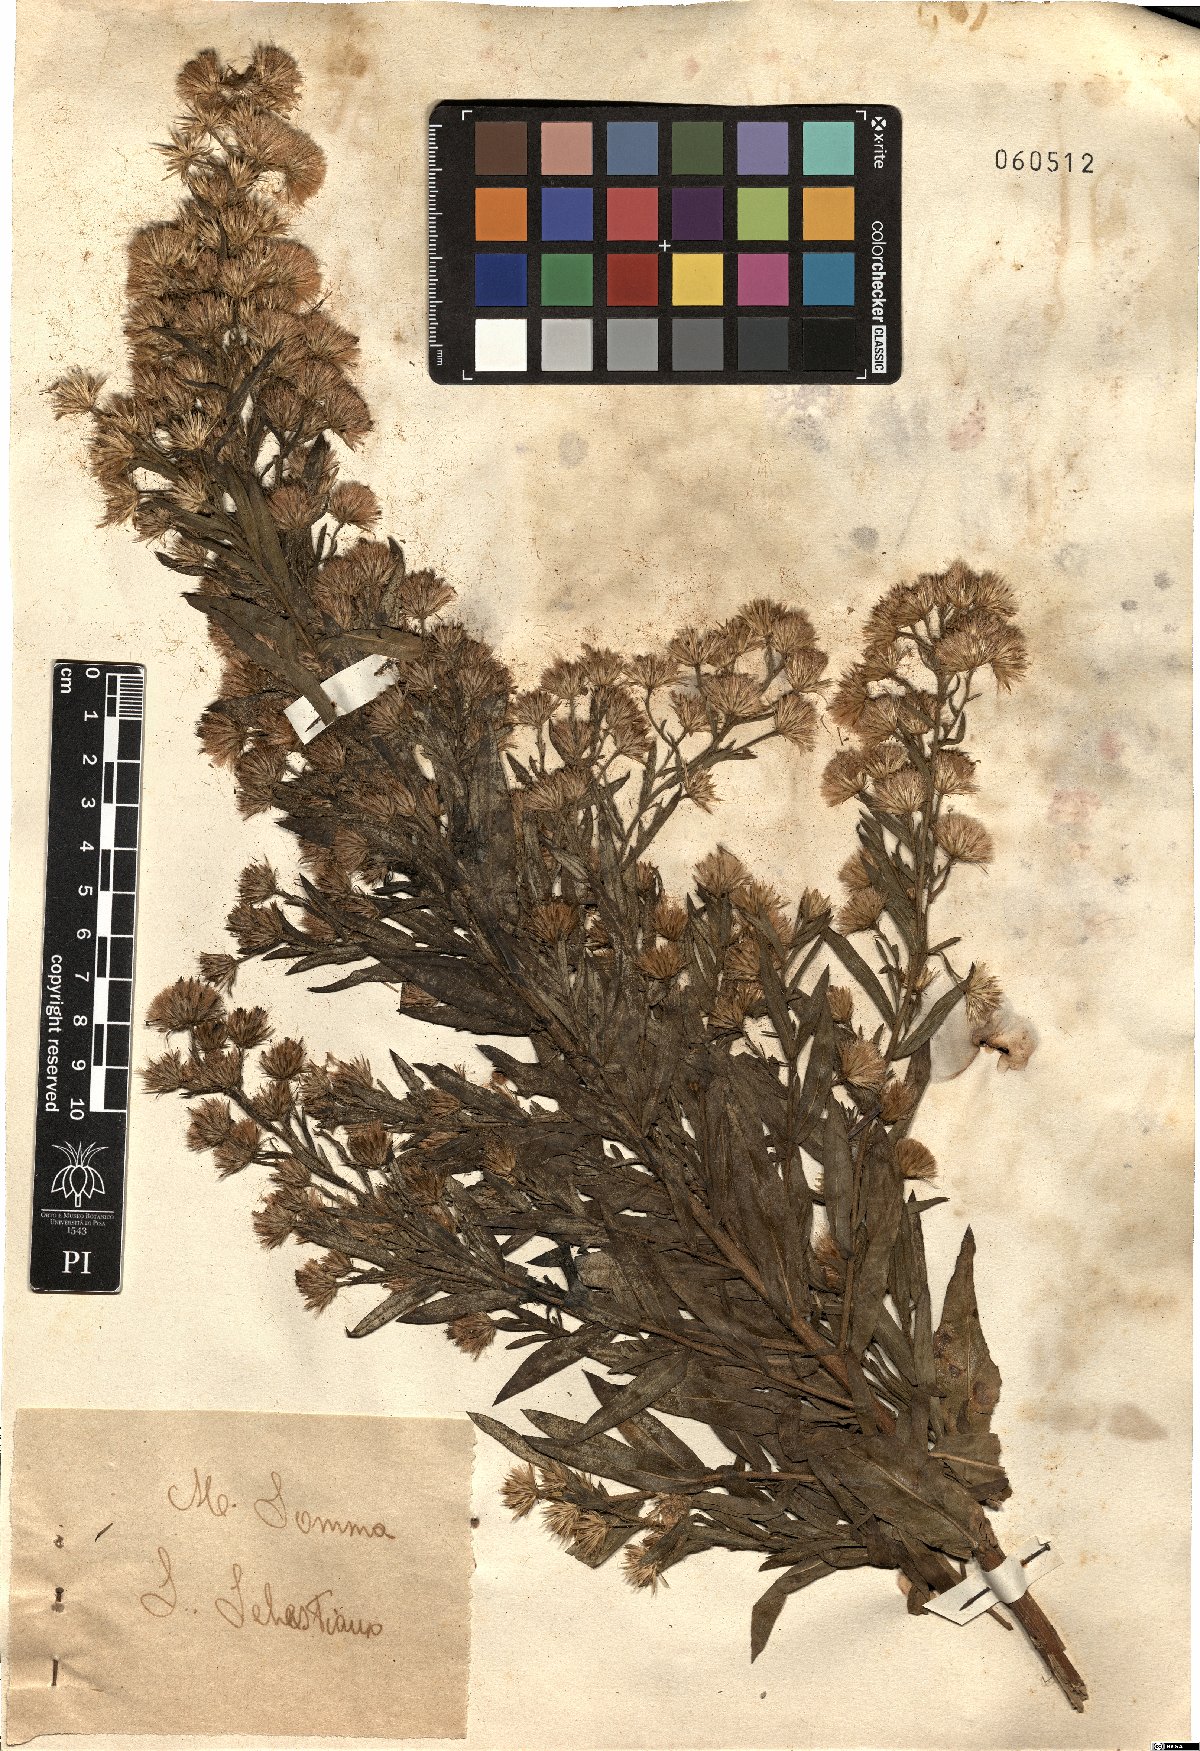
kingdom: Plantae
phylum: Tracheophyta
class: Magnoliopsida
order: Asterales
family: Asteraceae
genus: Dittrichia
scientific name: Dittrichia viscosa
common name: Woody fleabane
